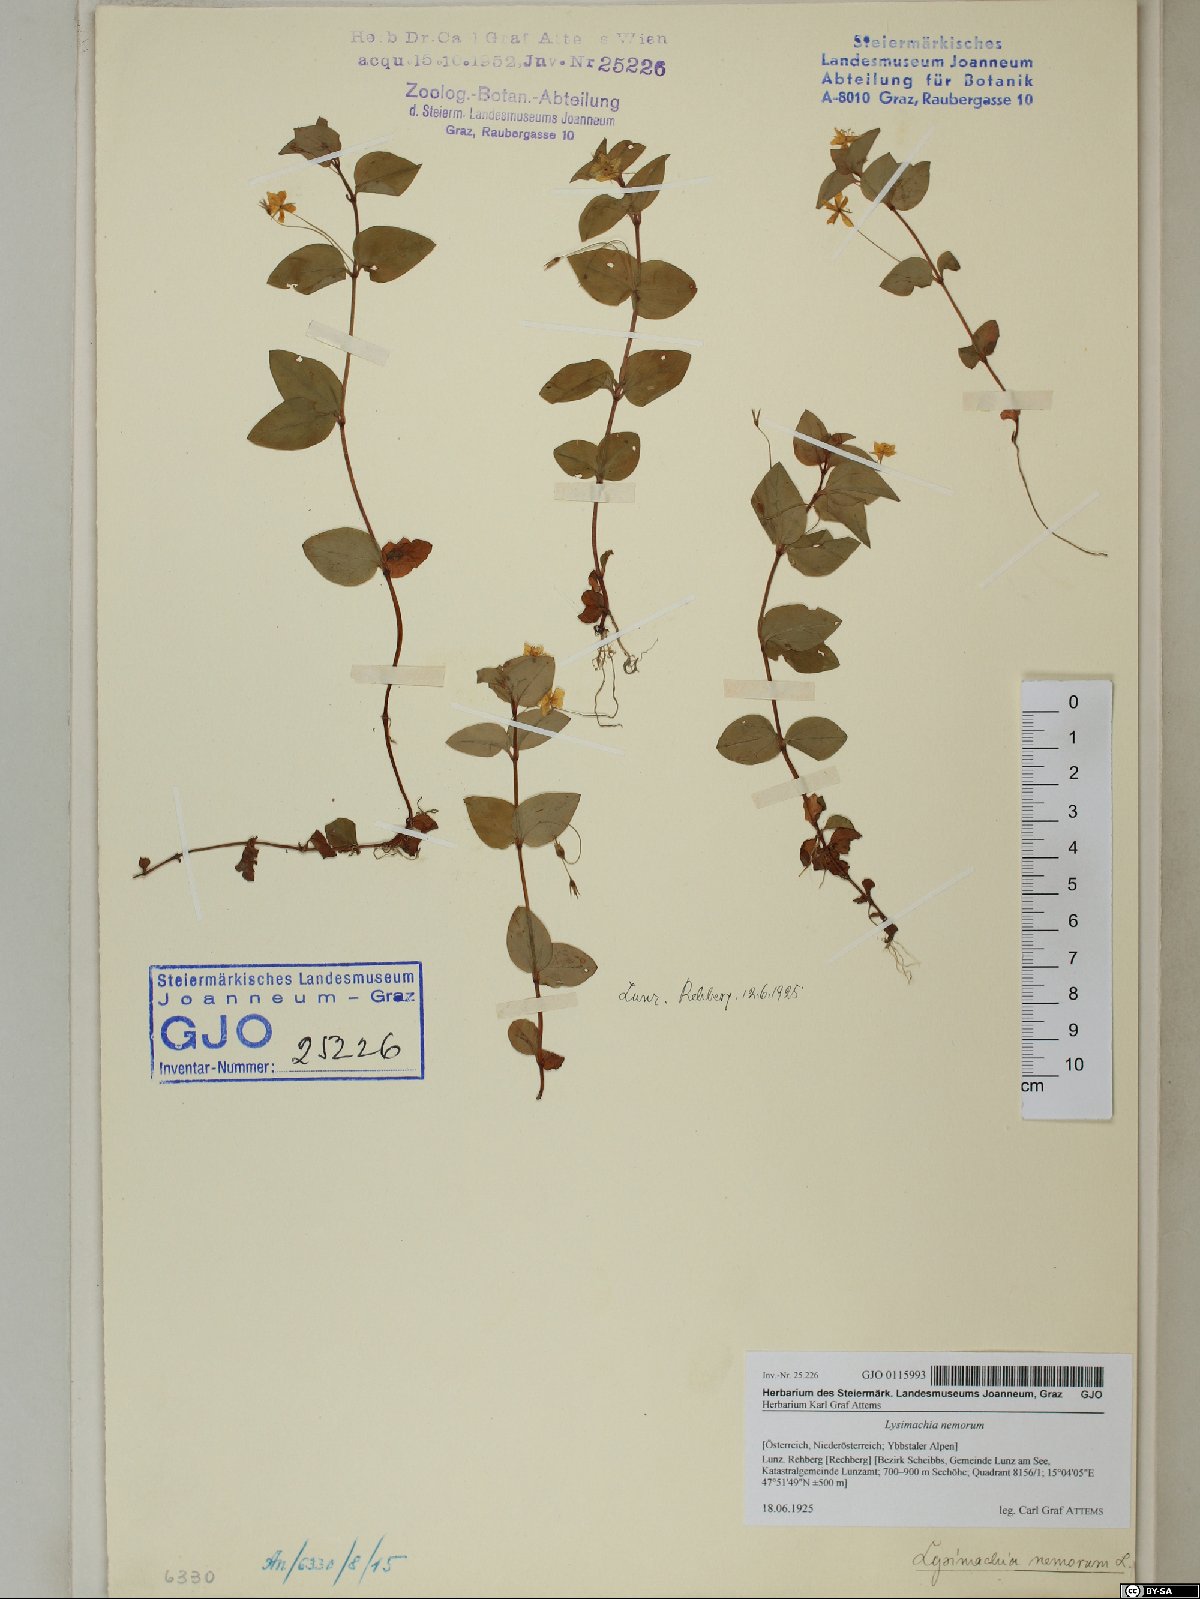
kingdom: Plantae
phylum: Tracheophyta
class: Magnoliopsida
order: Ericales
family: Primulaceae
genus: Lysimachia
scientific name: Lysimachia nemorum
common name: Yellow pimpernel
